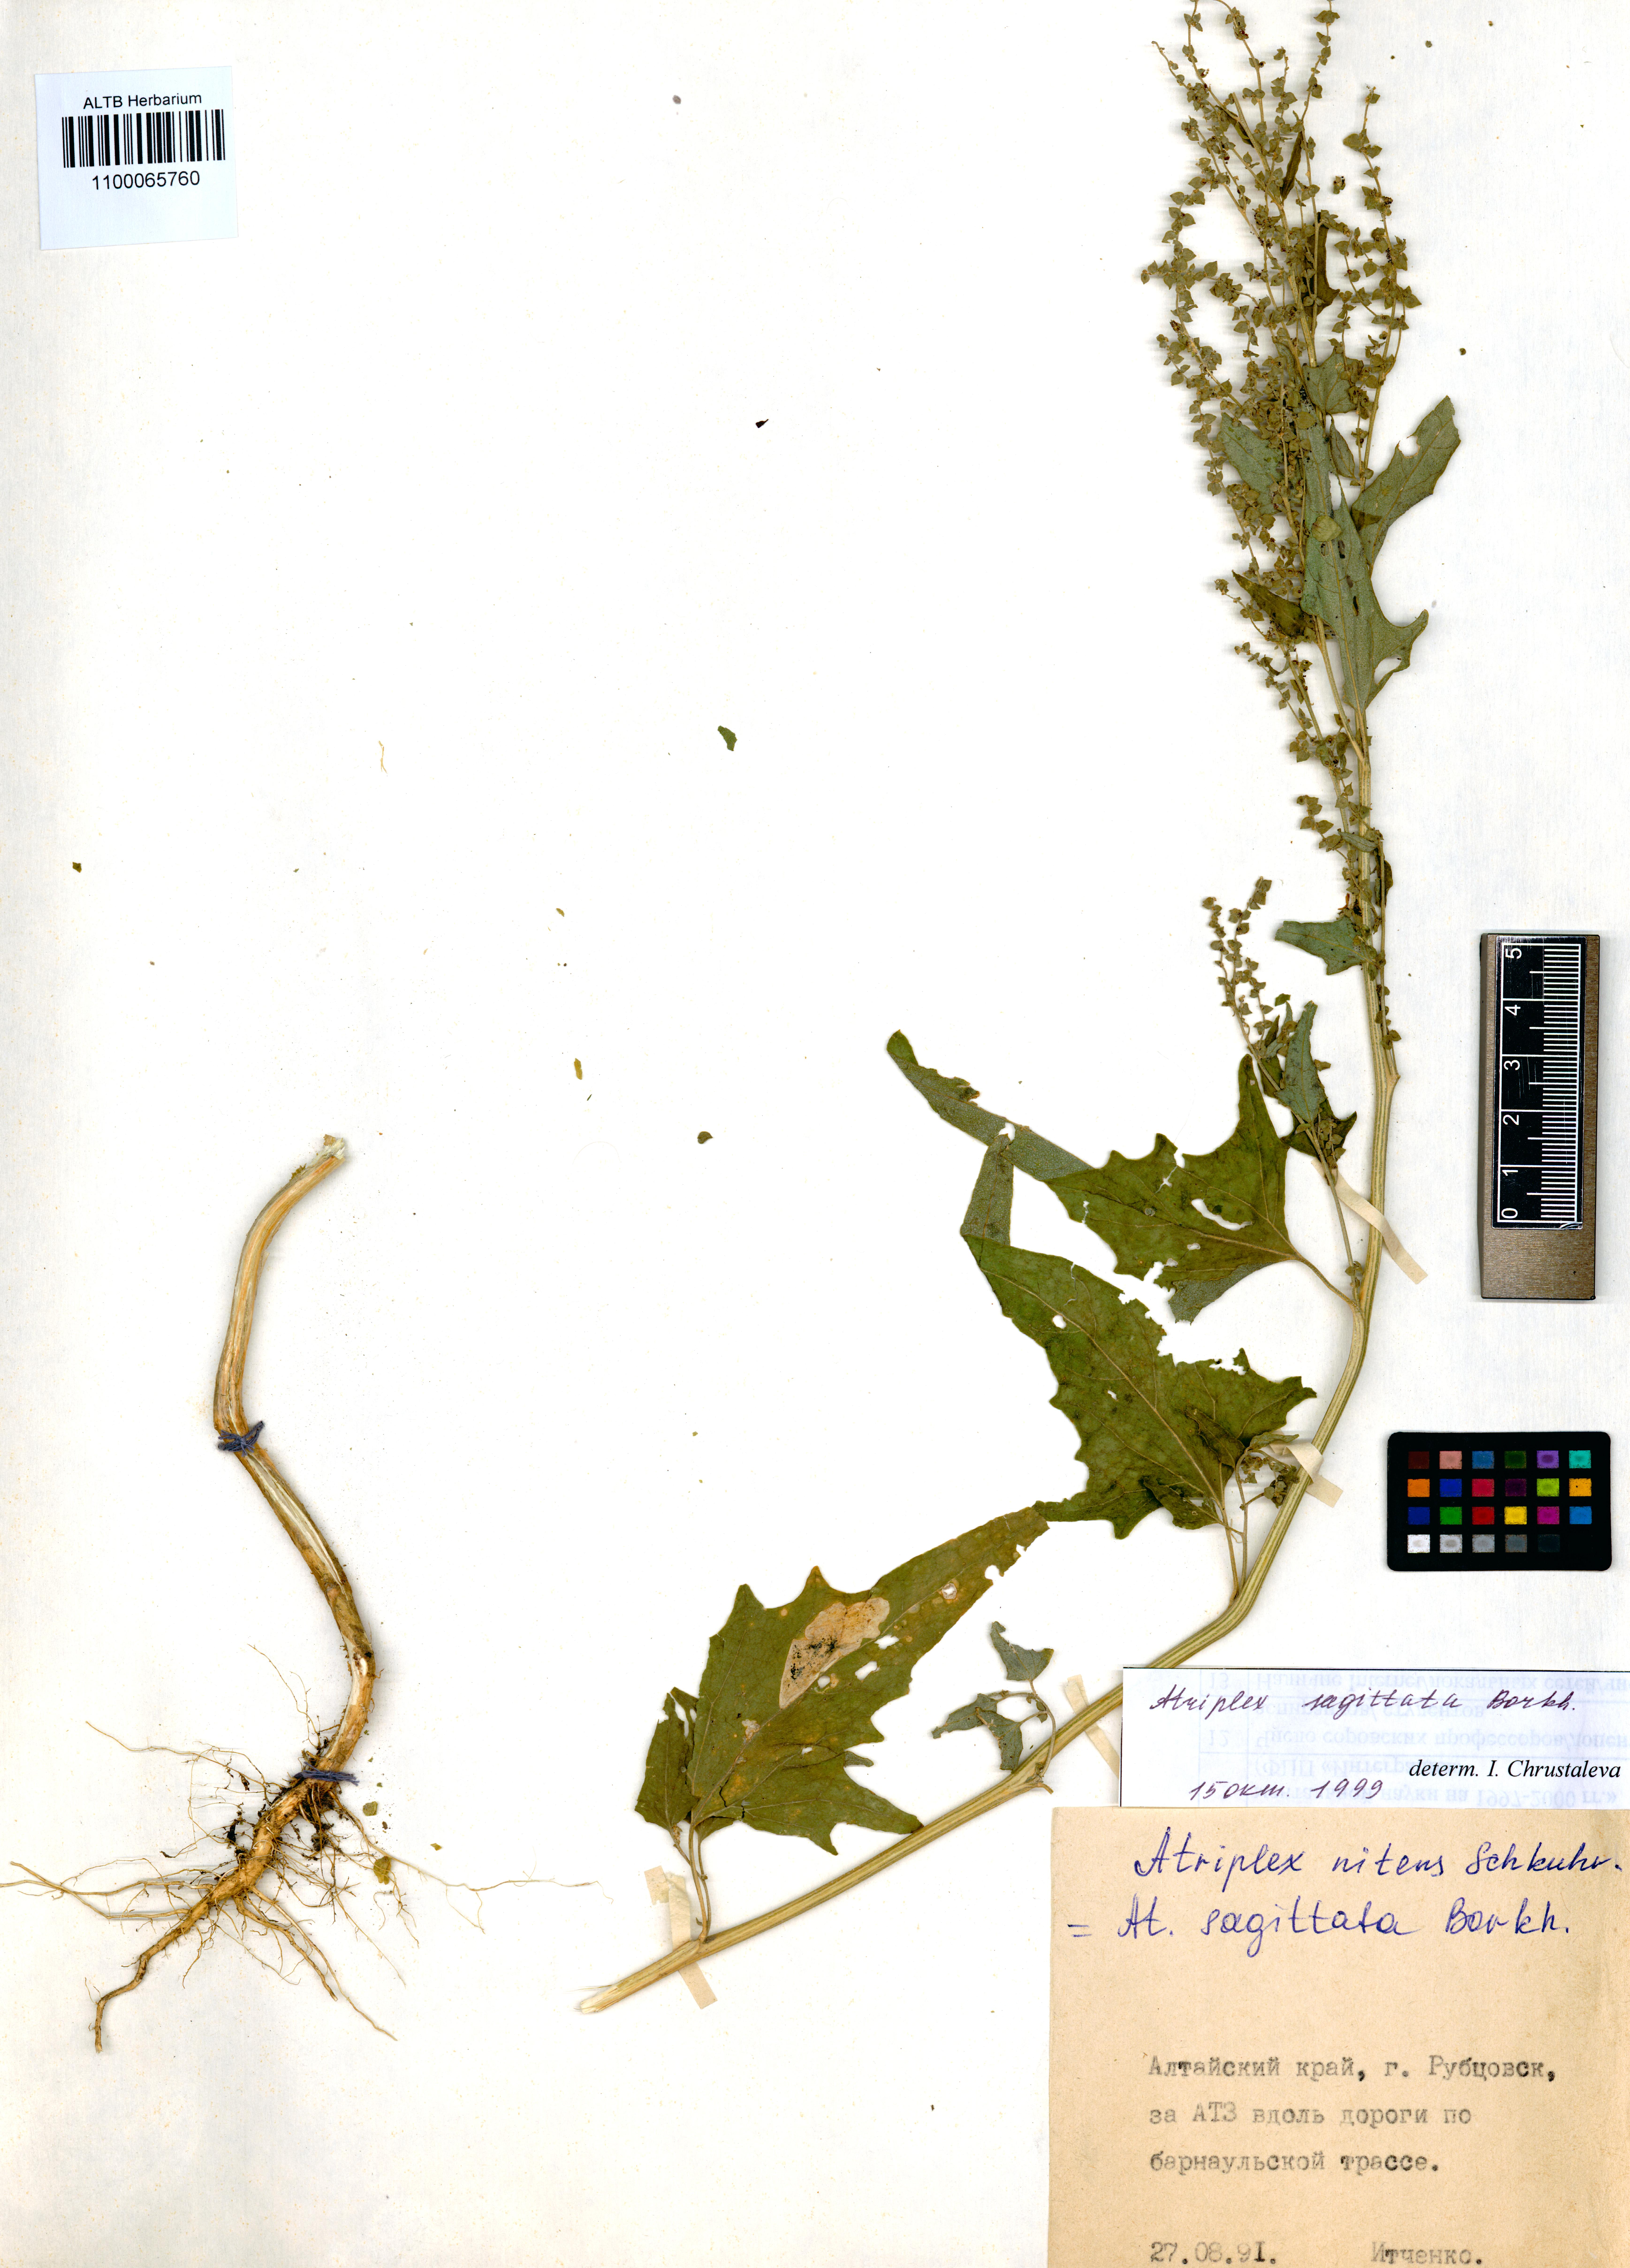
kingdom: Plantae
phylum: Tracheophyta
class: Magnoliopsida
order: Caryophyllales
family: Amaranthaceae
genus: Atriplex
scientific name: Atriplex sagittata
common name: Purple orache
